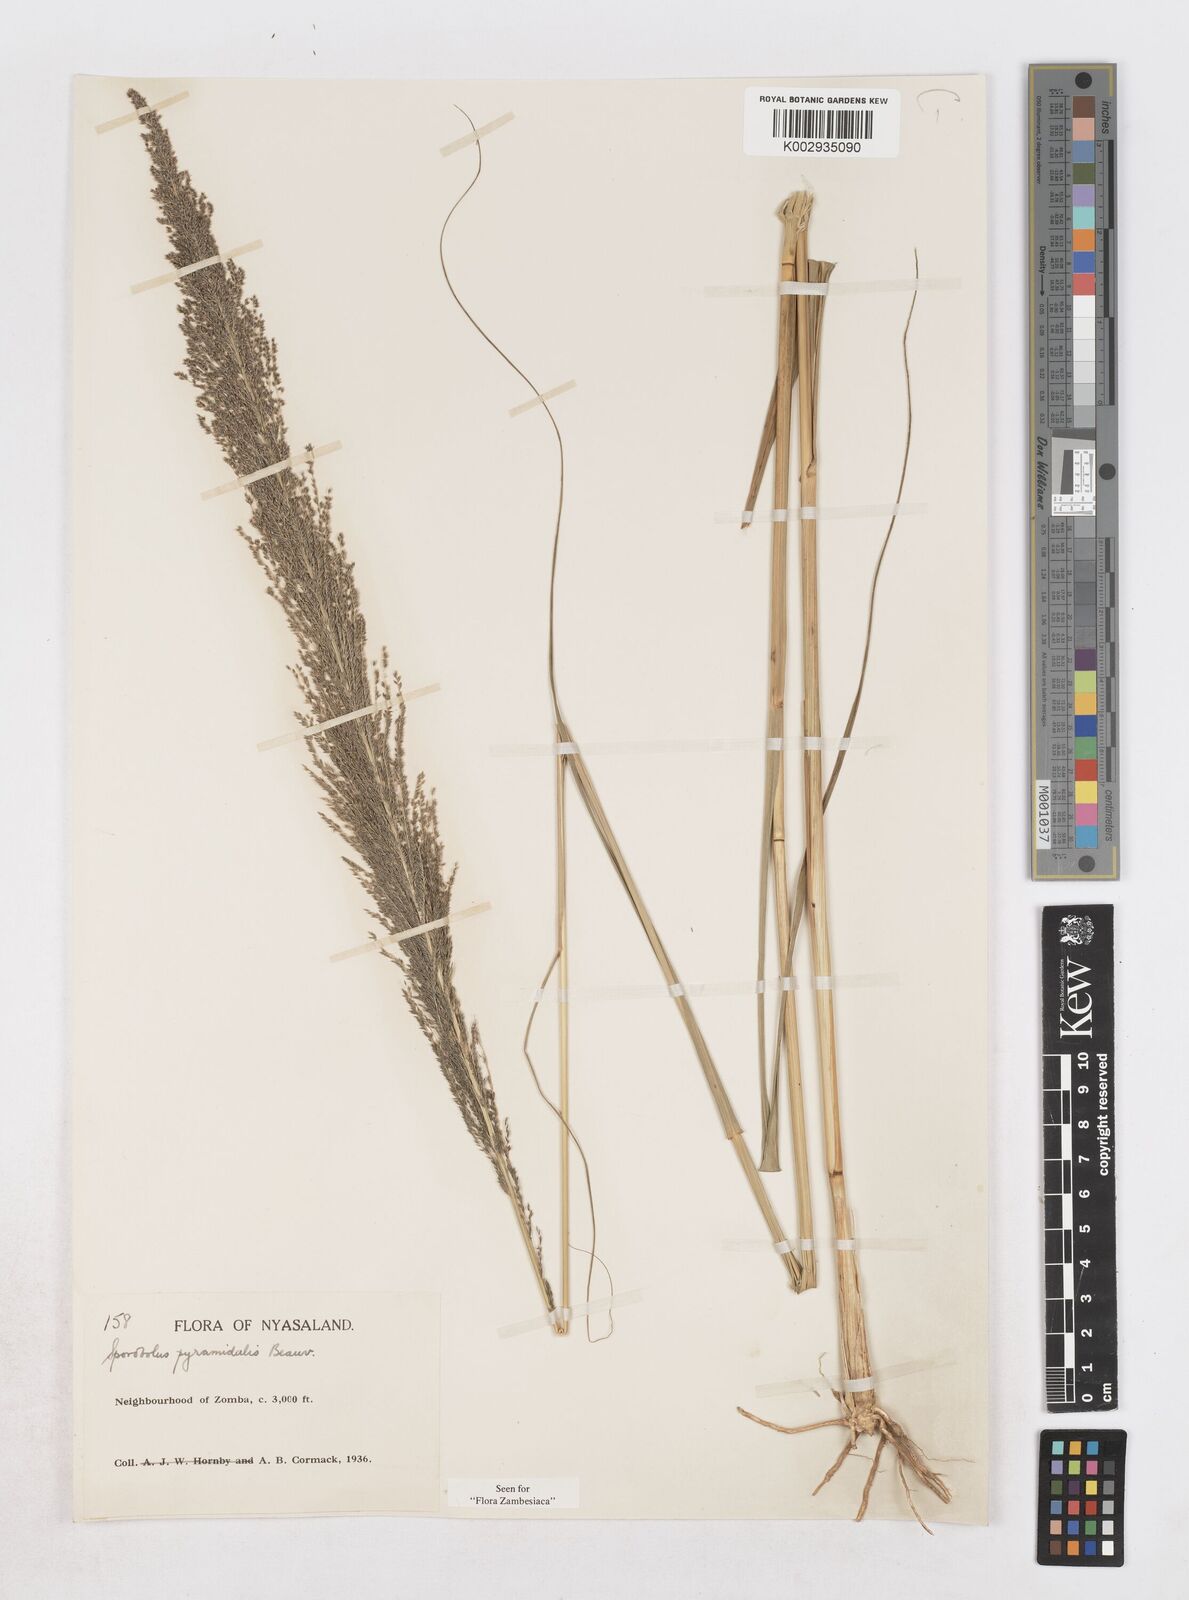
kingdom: Plantae
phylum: Tracheophyta
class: Liliopsida
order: Poales
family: Poaceae
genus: Sporobolus
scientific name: Sporobolus pyramidalis
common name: West indian dropseed
